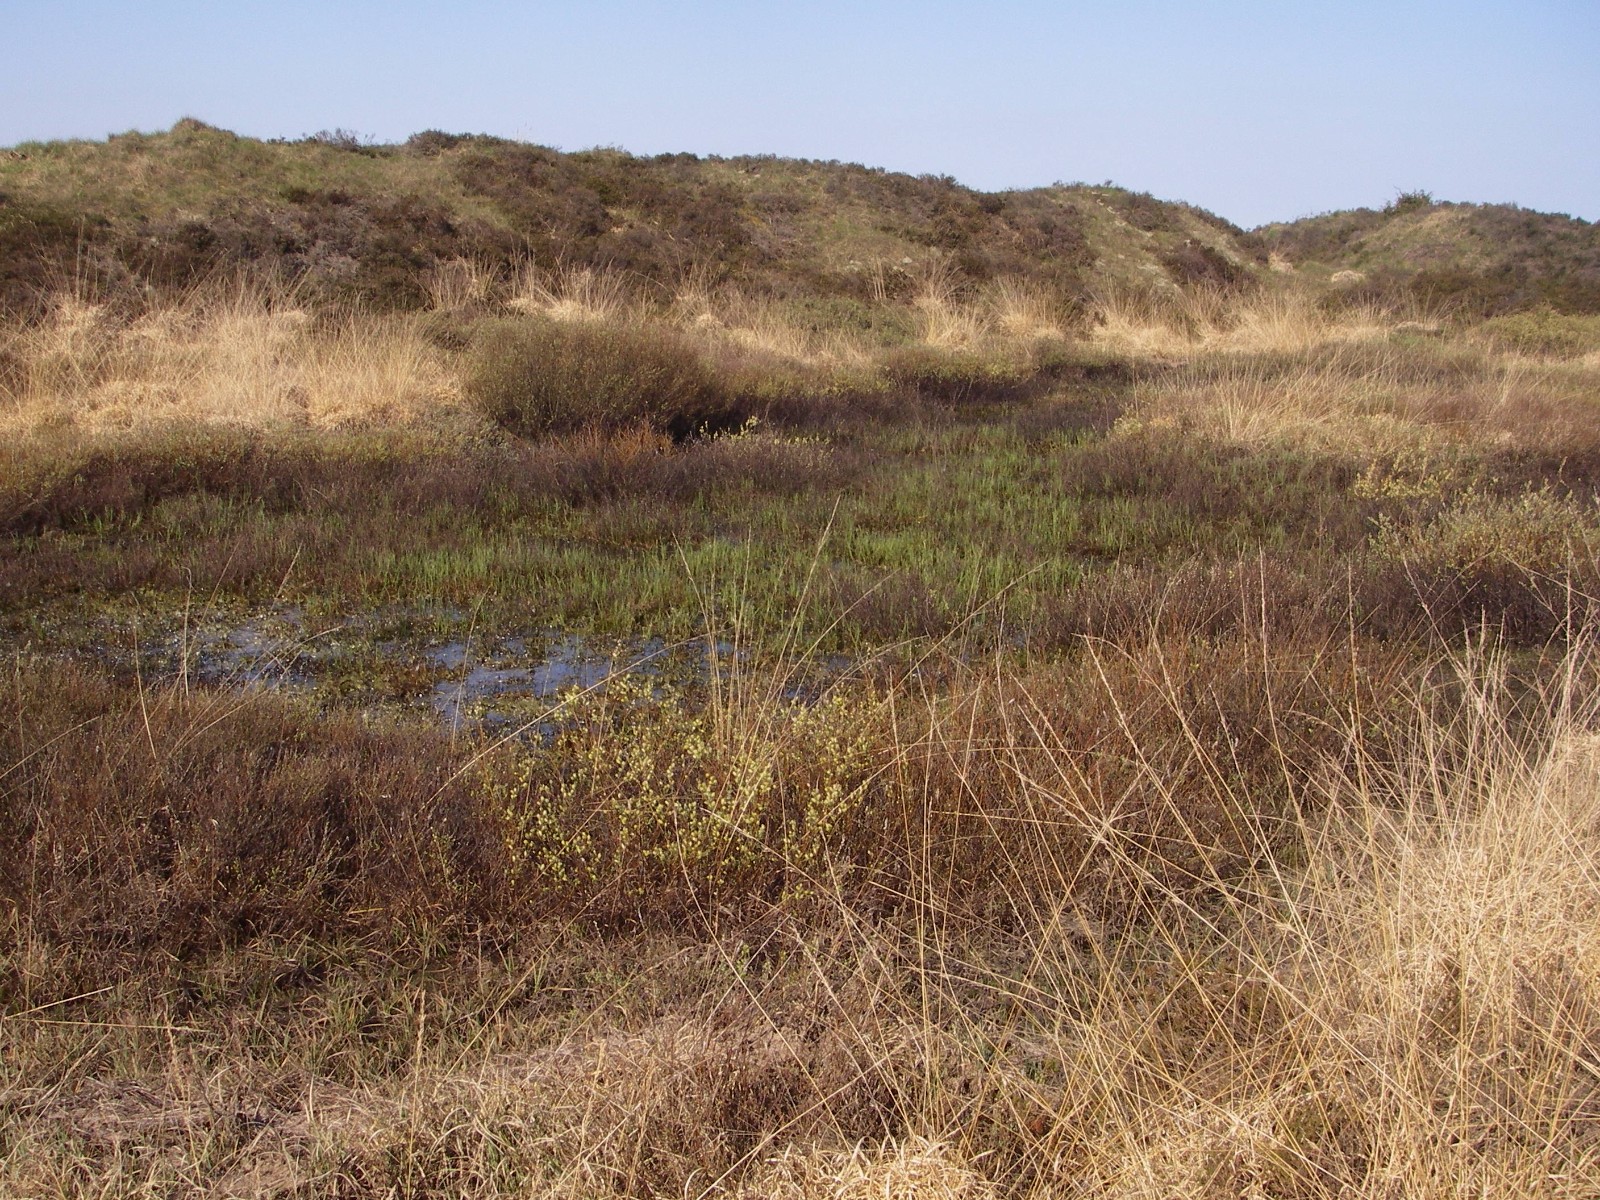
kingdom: Fungi
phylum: Ascomycota
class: Pezizomycetes
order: Pezizales
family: Pyronemataceae
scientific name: Pyronemataceae
